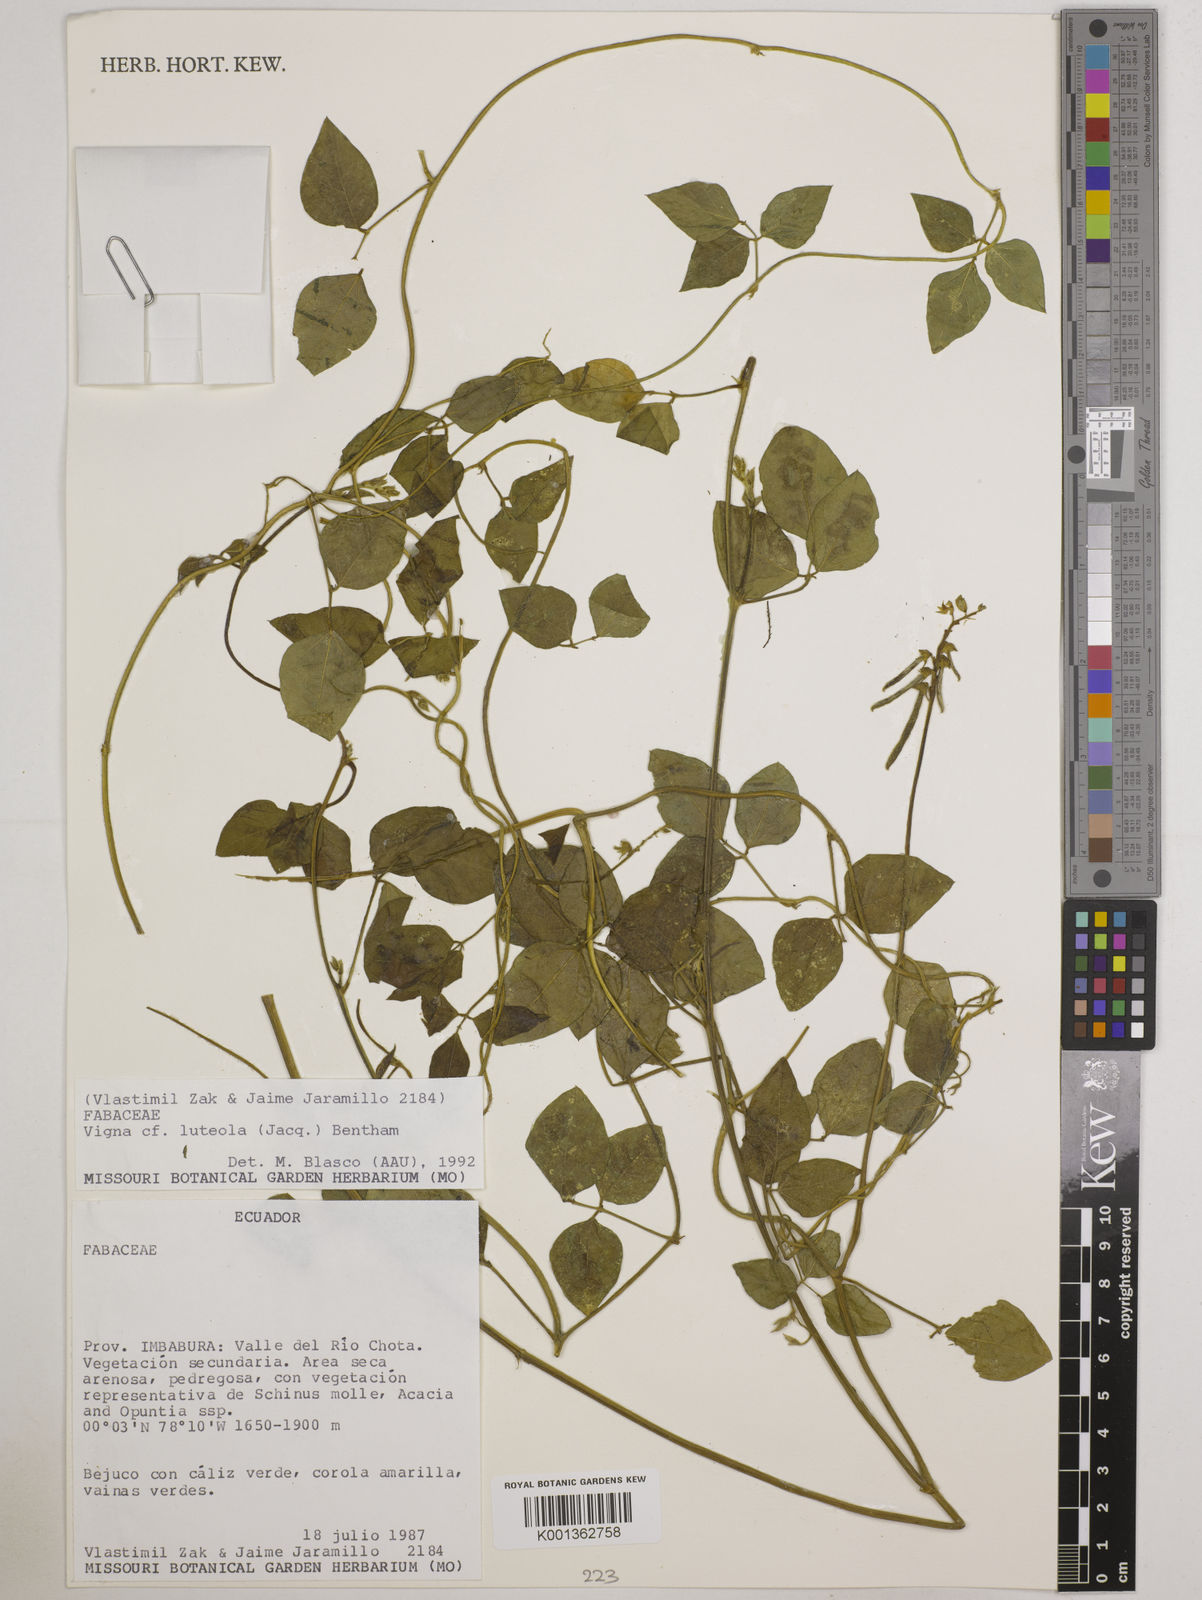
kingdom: Plantae
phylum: Tracheophyta
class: Magnoliopsida
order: Fabales
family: Fabaceae
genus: Vigna
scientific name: Vigna luteola
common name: Hairypod cowpea
